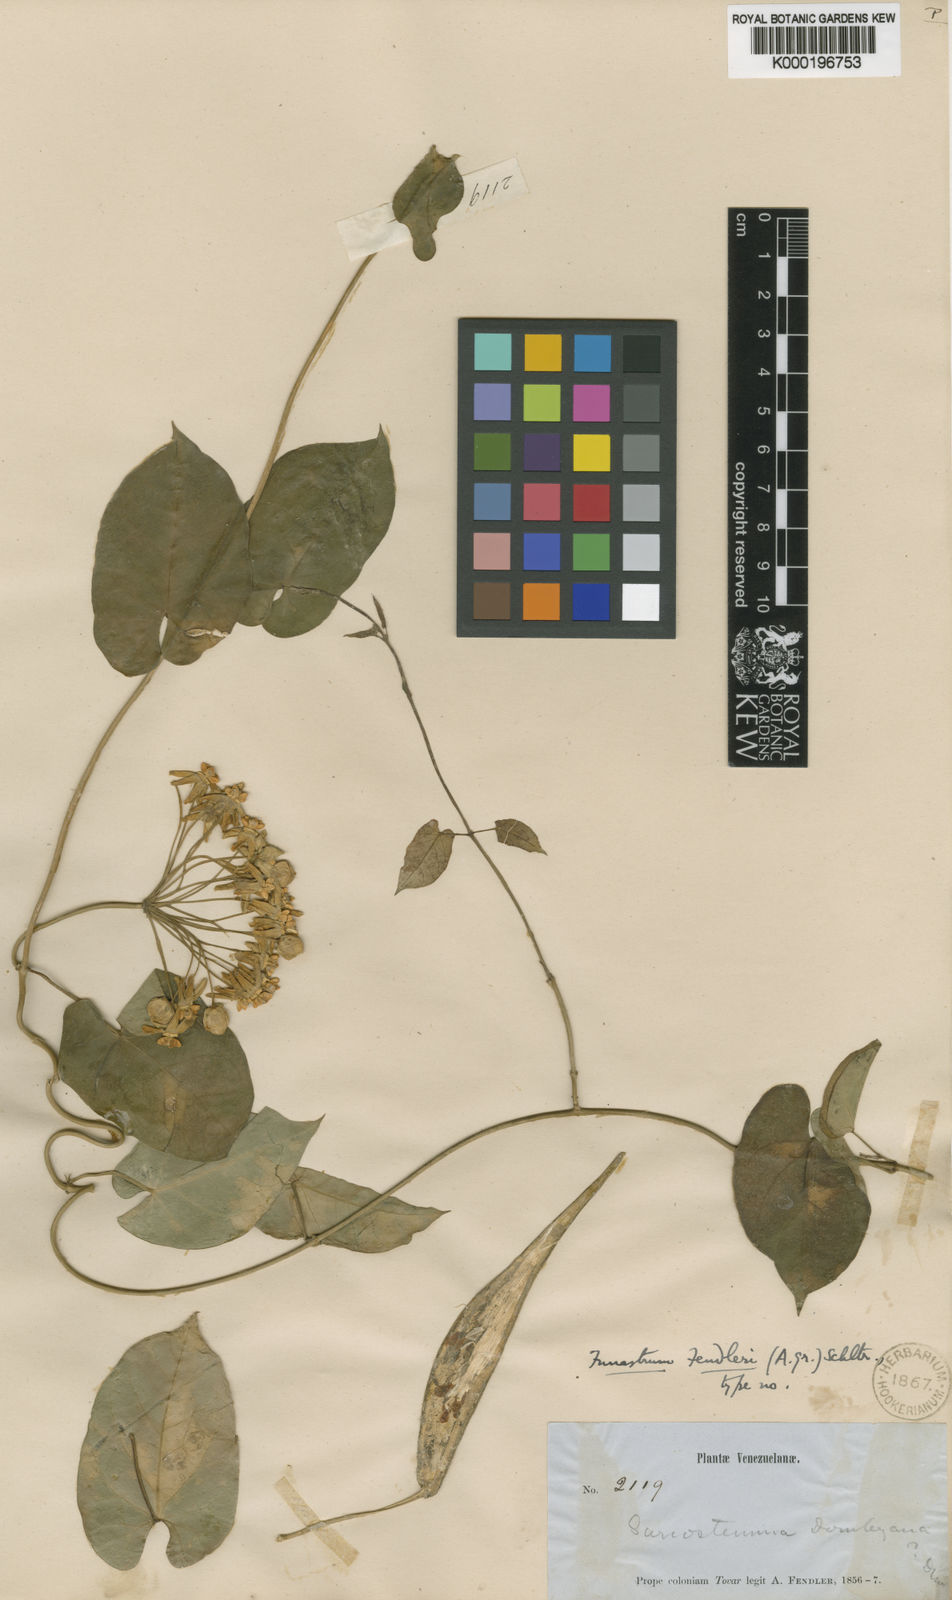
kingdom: Plantae
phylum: Tracheophyta
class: Magnoliopsida
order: Gentianales
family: Apocynaceae
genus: Funastrum
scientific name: Funastrum
